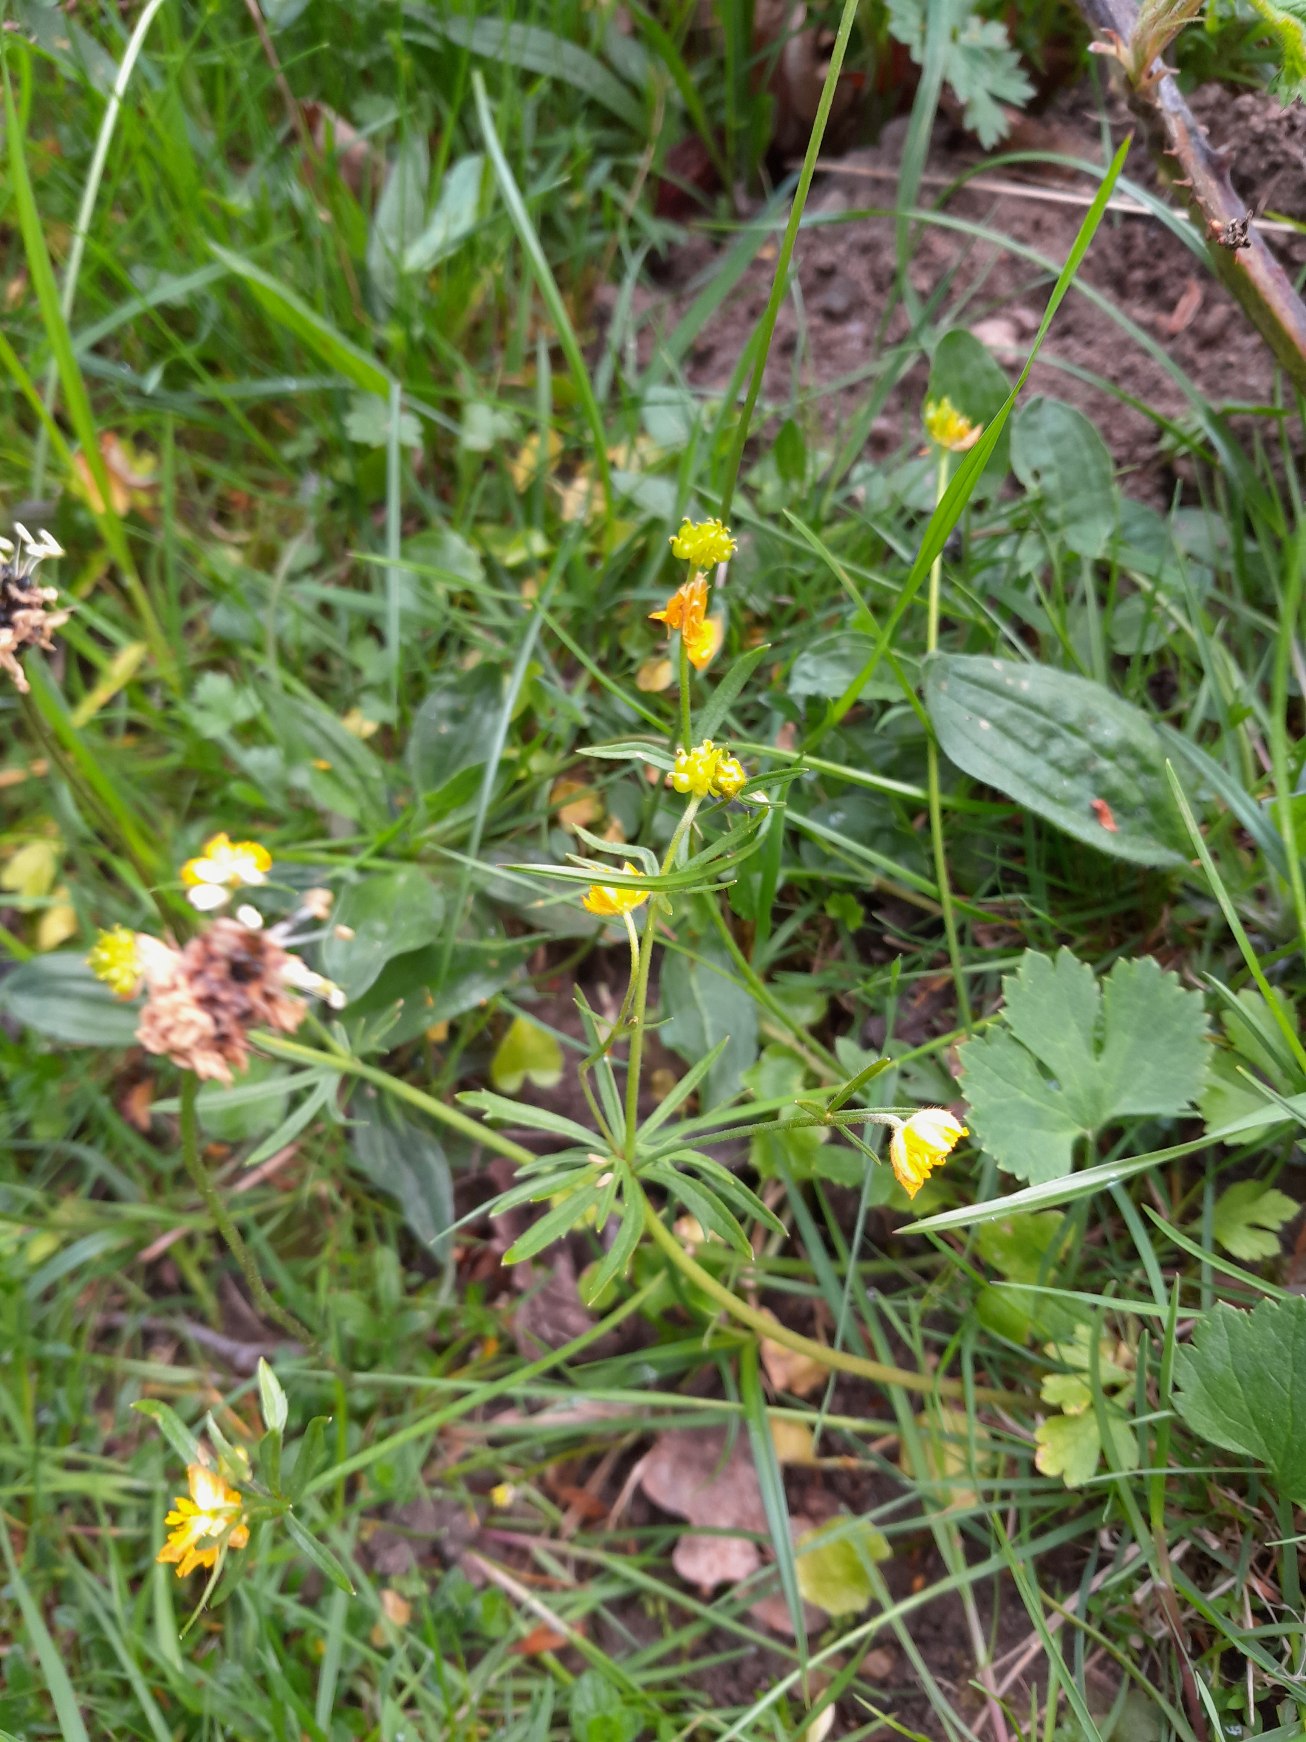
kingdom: Plantae
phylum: Tracheophyta
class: Magnoliopsida
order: Ranunculales
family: Ranunculaceae
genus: Ranunculus
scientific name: Ranunculus auricomus
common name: Nyrebladet ranunkel
